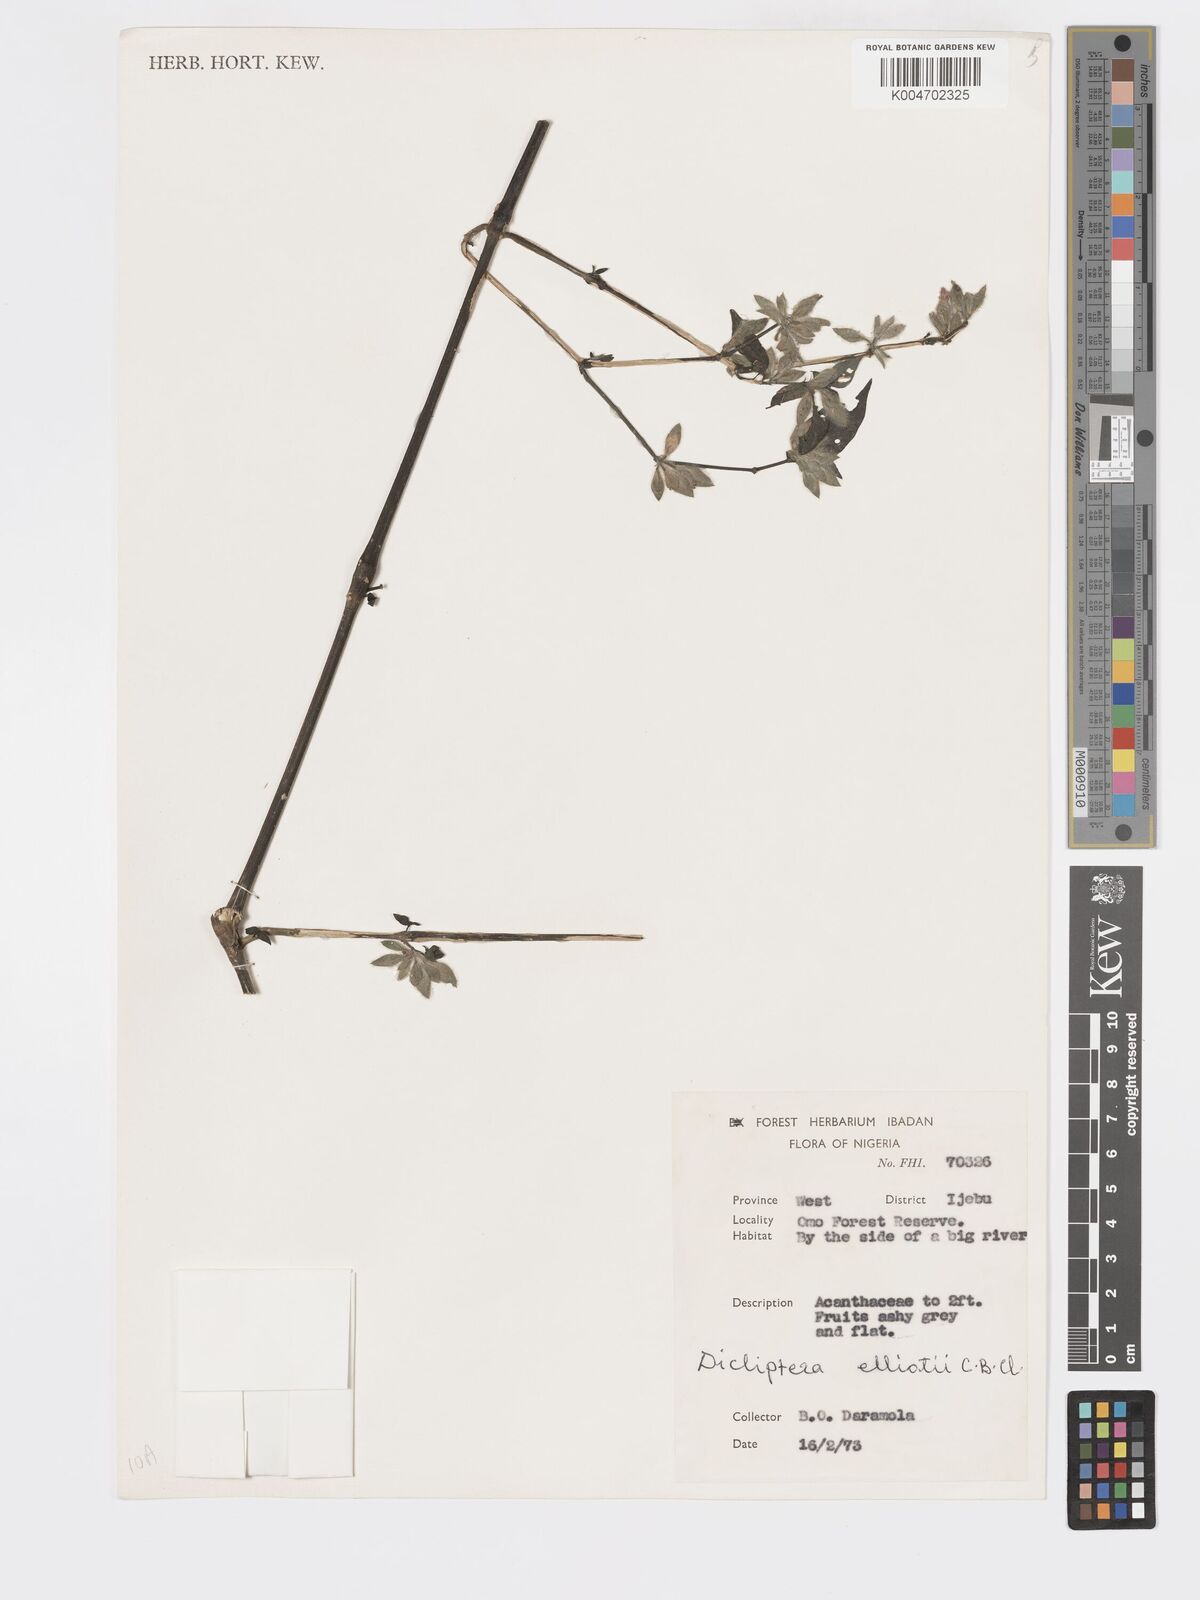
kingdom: Plantae
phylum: Tracheophyta
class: Magnoliopsida
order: Lamiales
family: Acanthaceae
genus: Dicliptera
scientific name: Dicliptera
